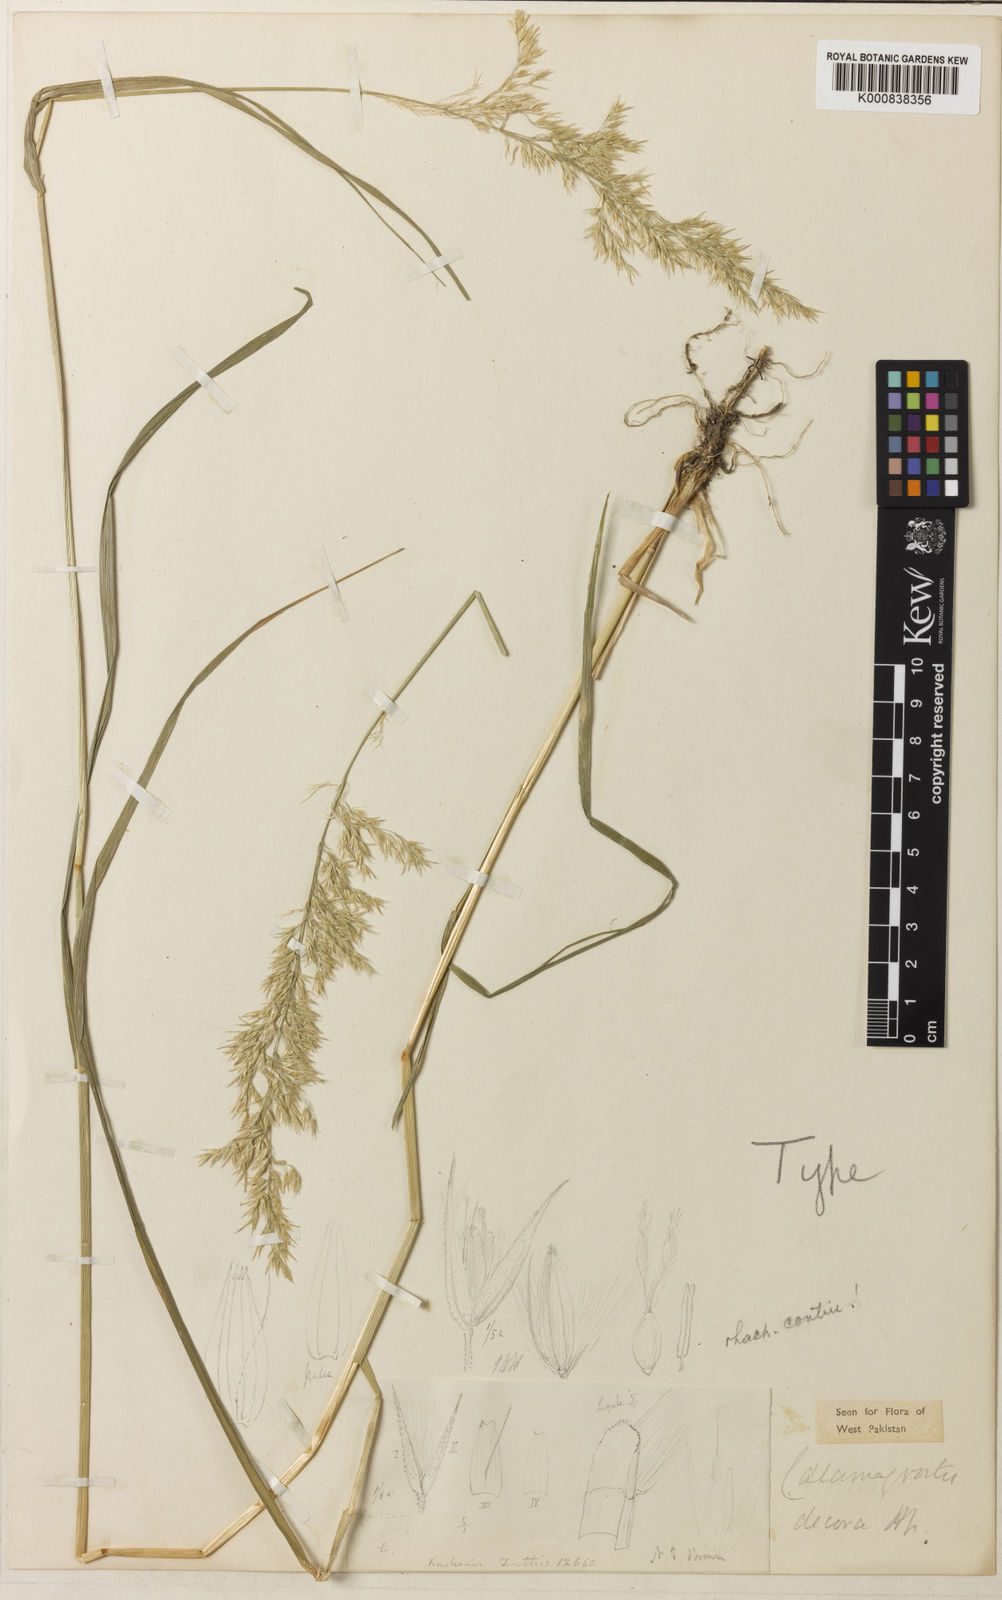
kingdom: Plantae
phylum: Tracheophyta
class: Liliopsida
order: Poales
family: Poaceae
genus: Calamagrostis
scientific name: Calamagrostis decora
